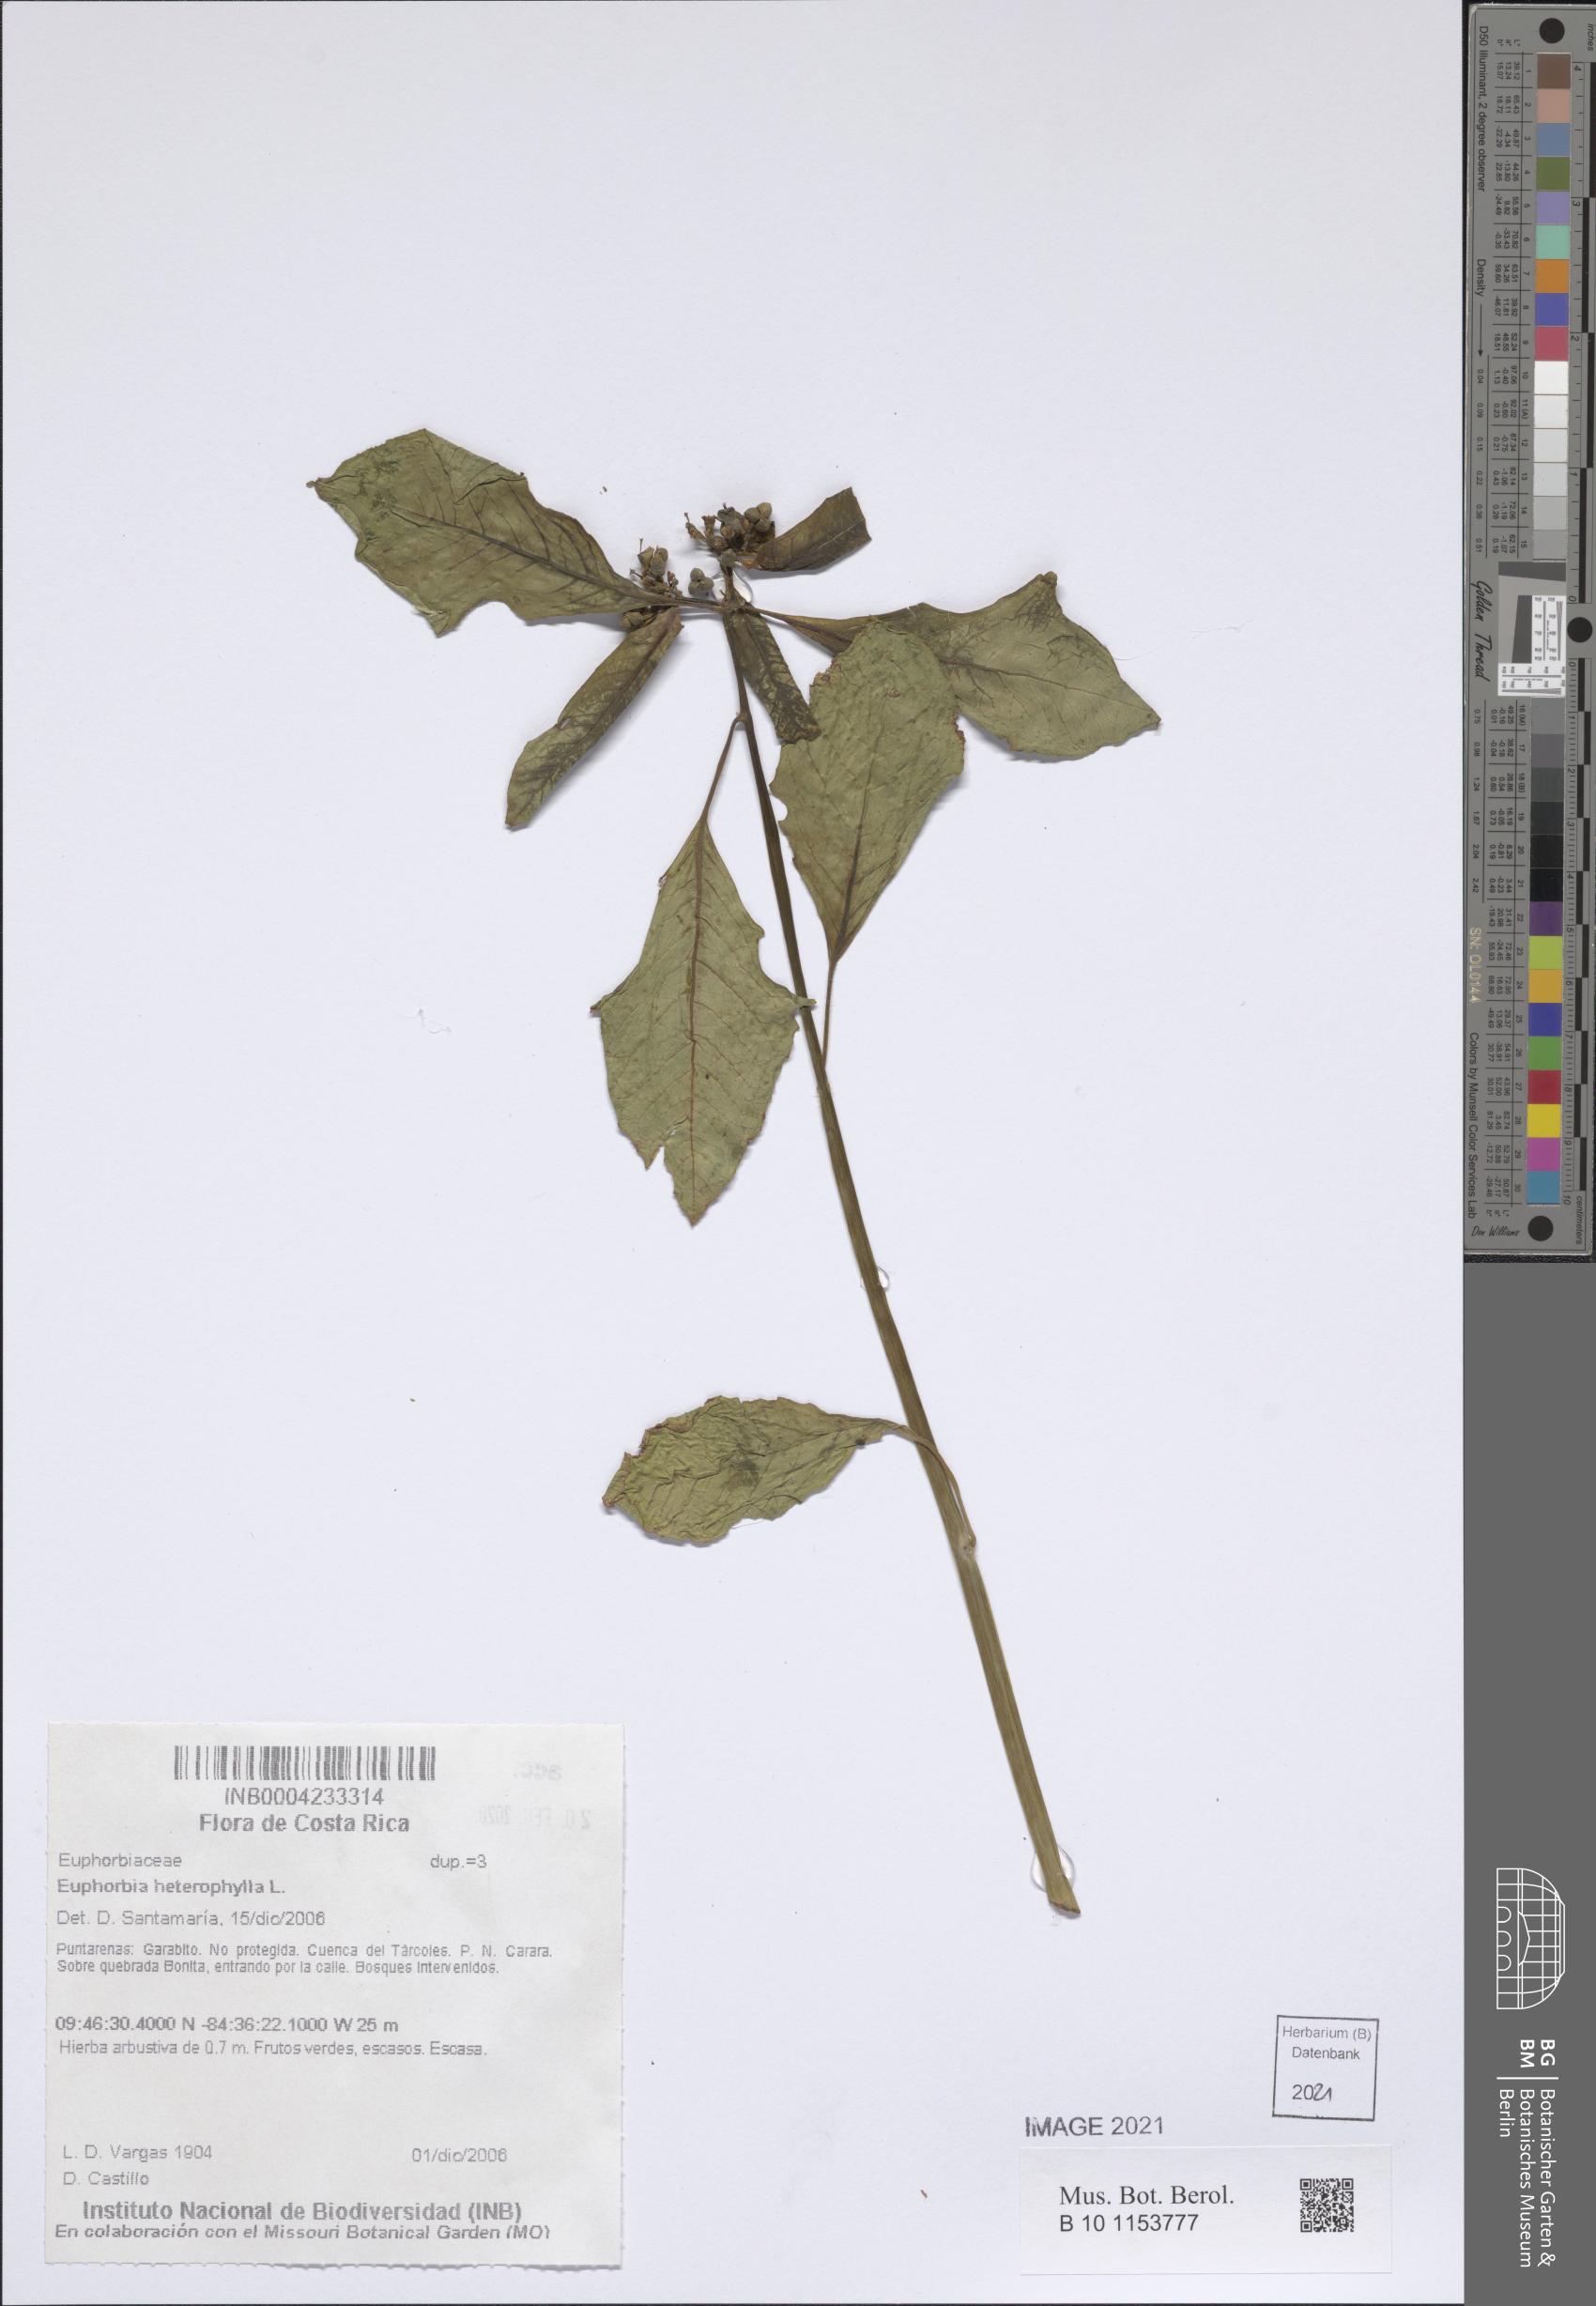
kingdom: Plantae
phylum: Tracheophyta
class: Magnoliopsida
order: Malpighiales
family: Euphorbiaceae
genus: Euphorbia
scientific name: Euphorbia heterophylla
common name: Mexican fireplant
